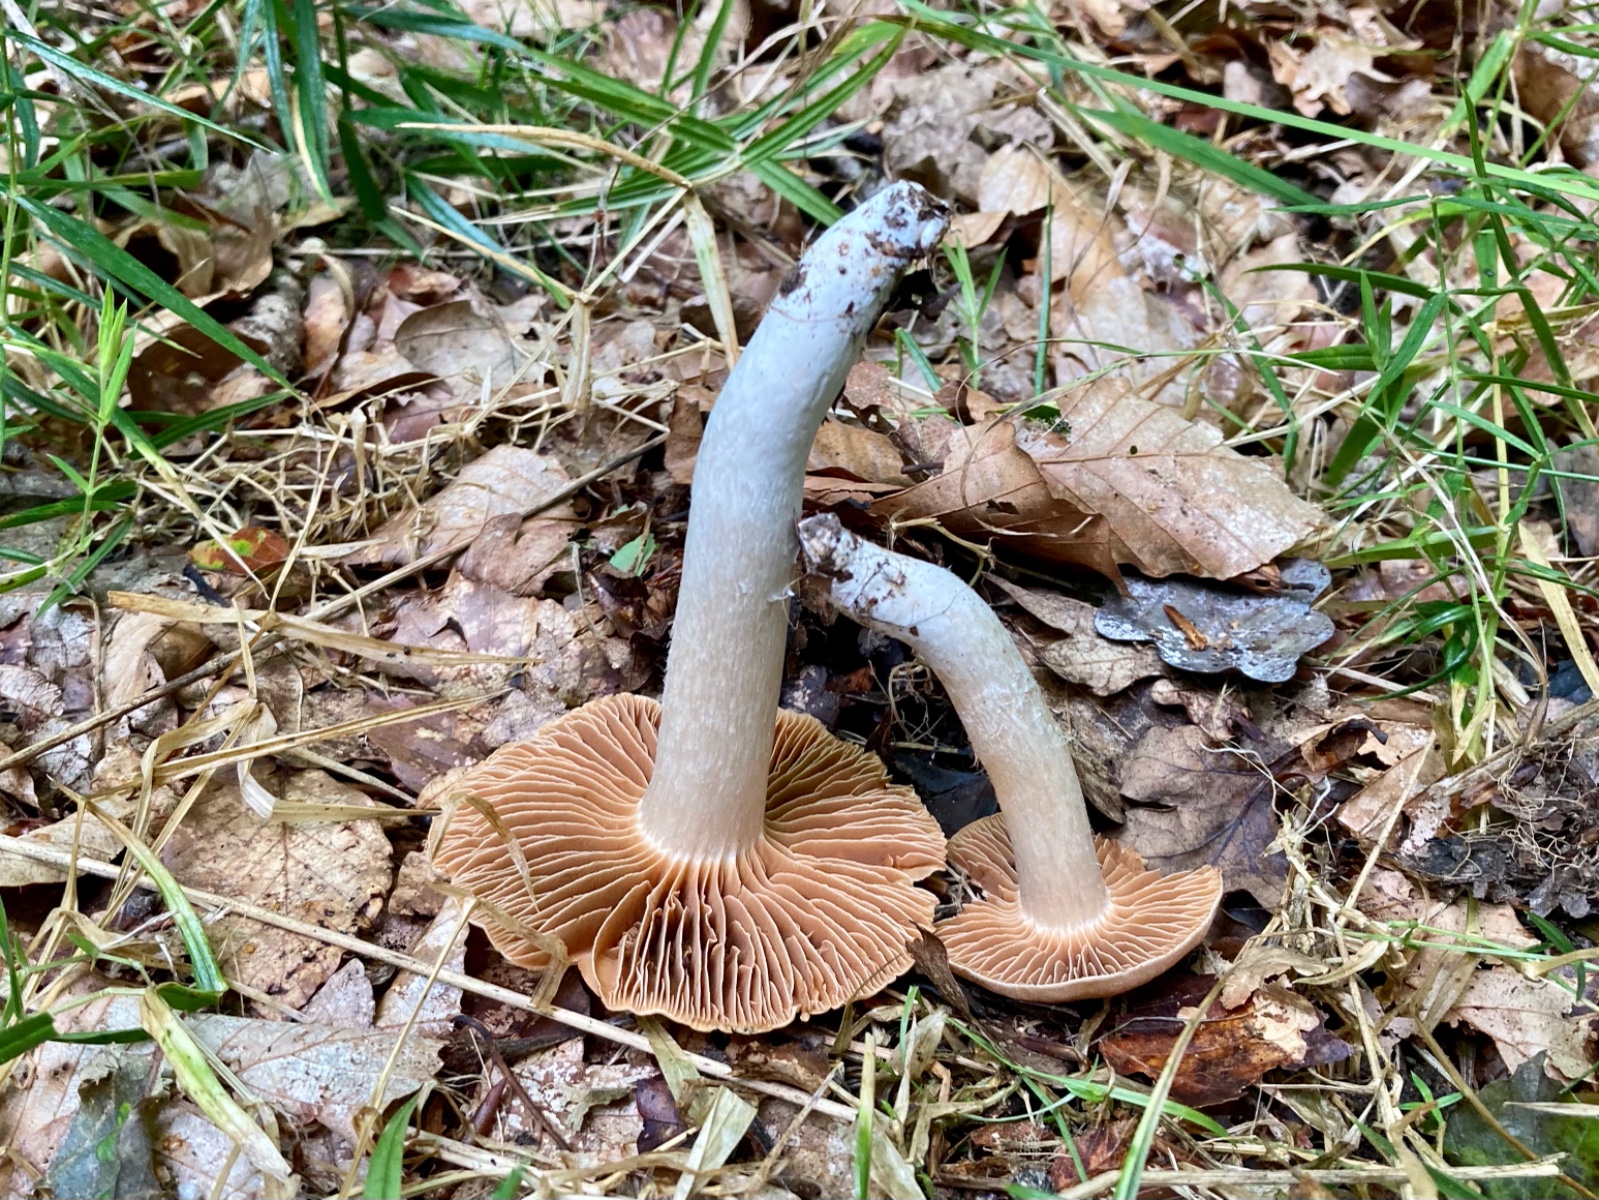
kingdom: Fungi
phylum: Basidiomycota
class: Agaricomycetes
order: Agaricales
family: Cortinariaceae
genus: Cortinarius
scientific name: Cortinarius masseei
